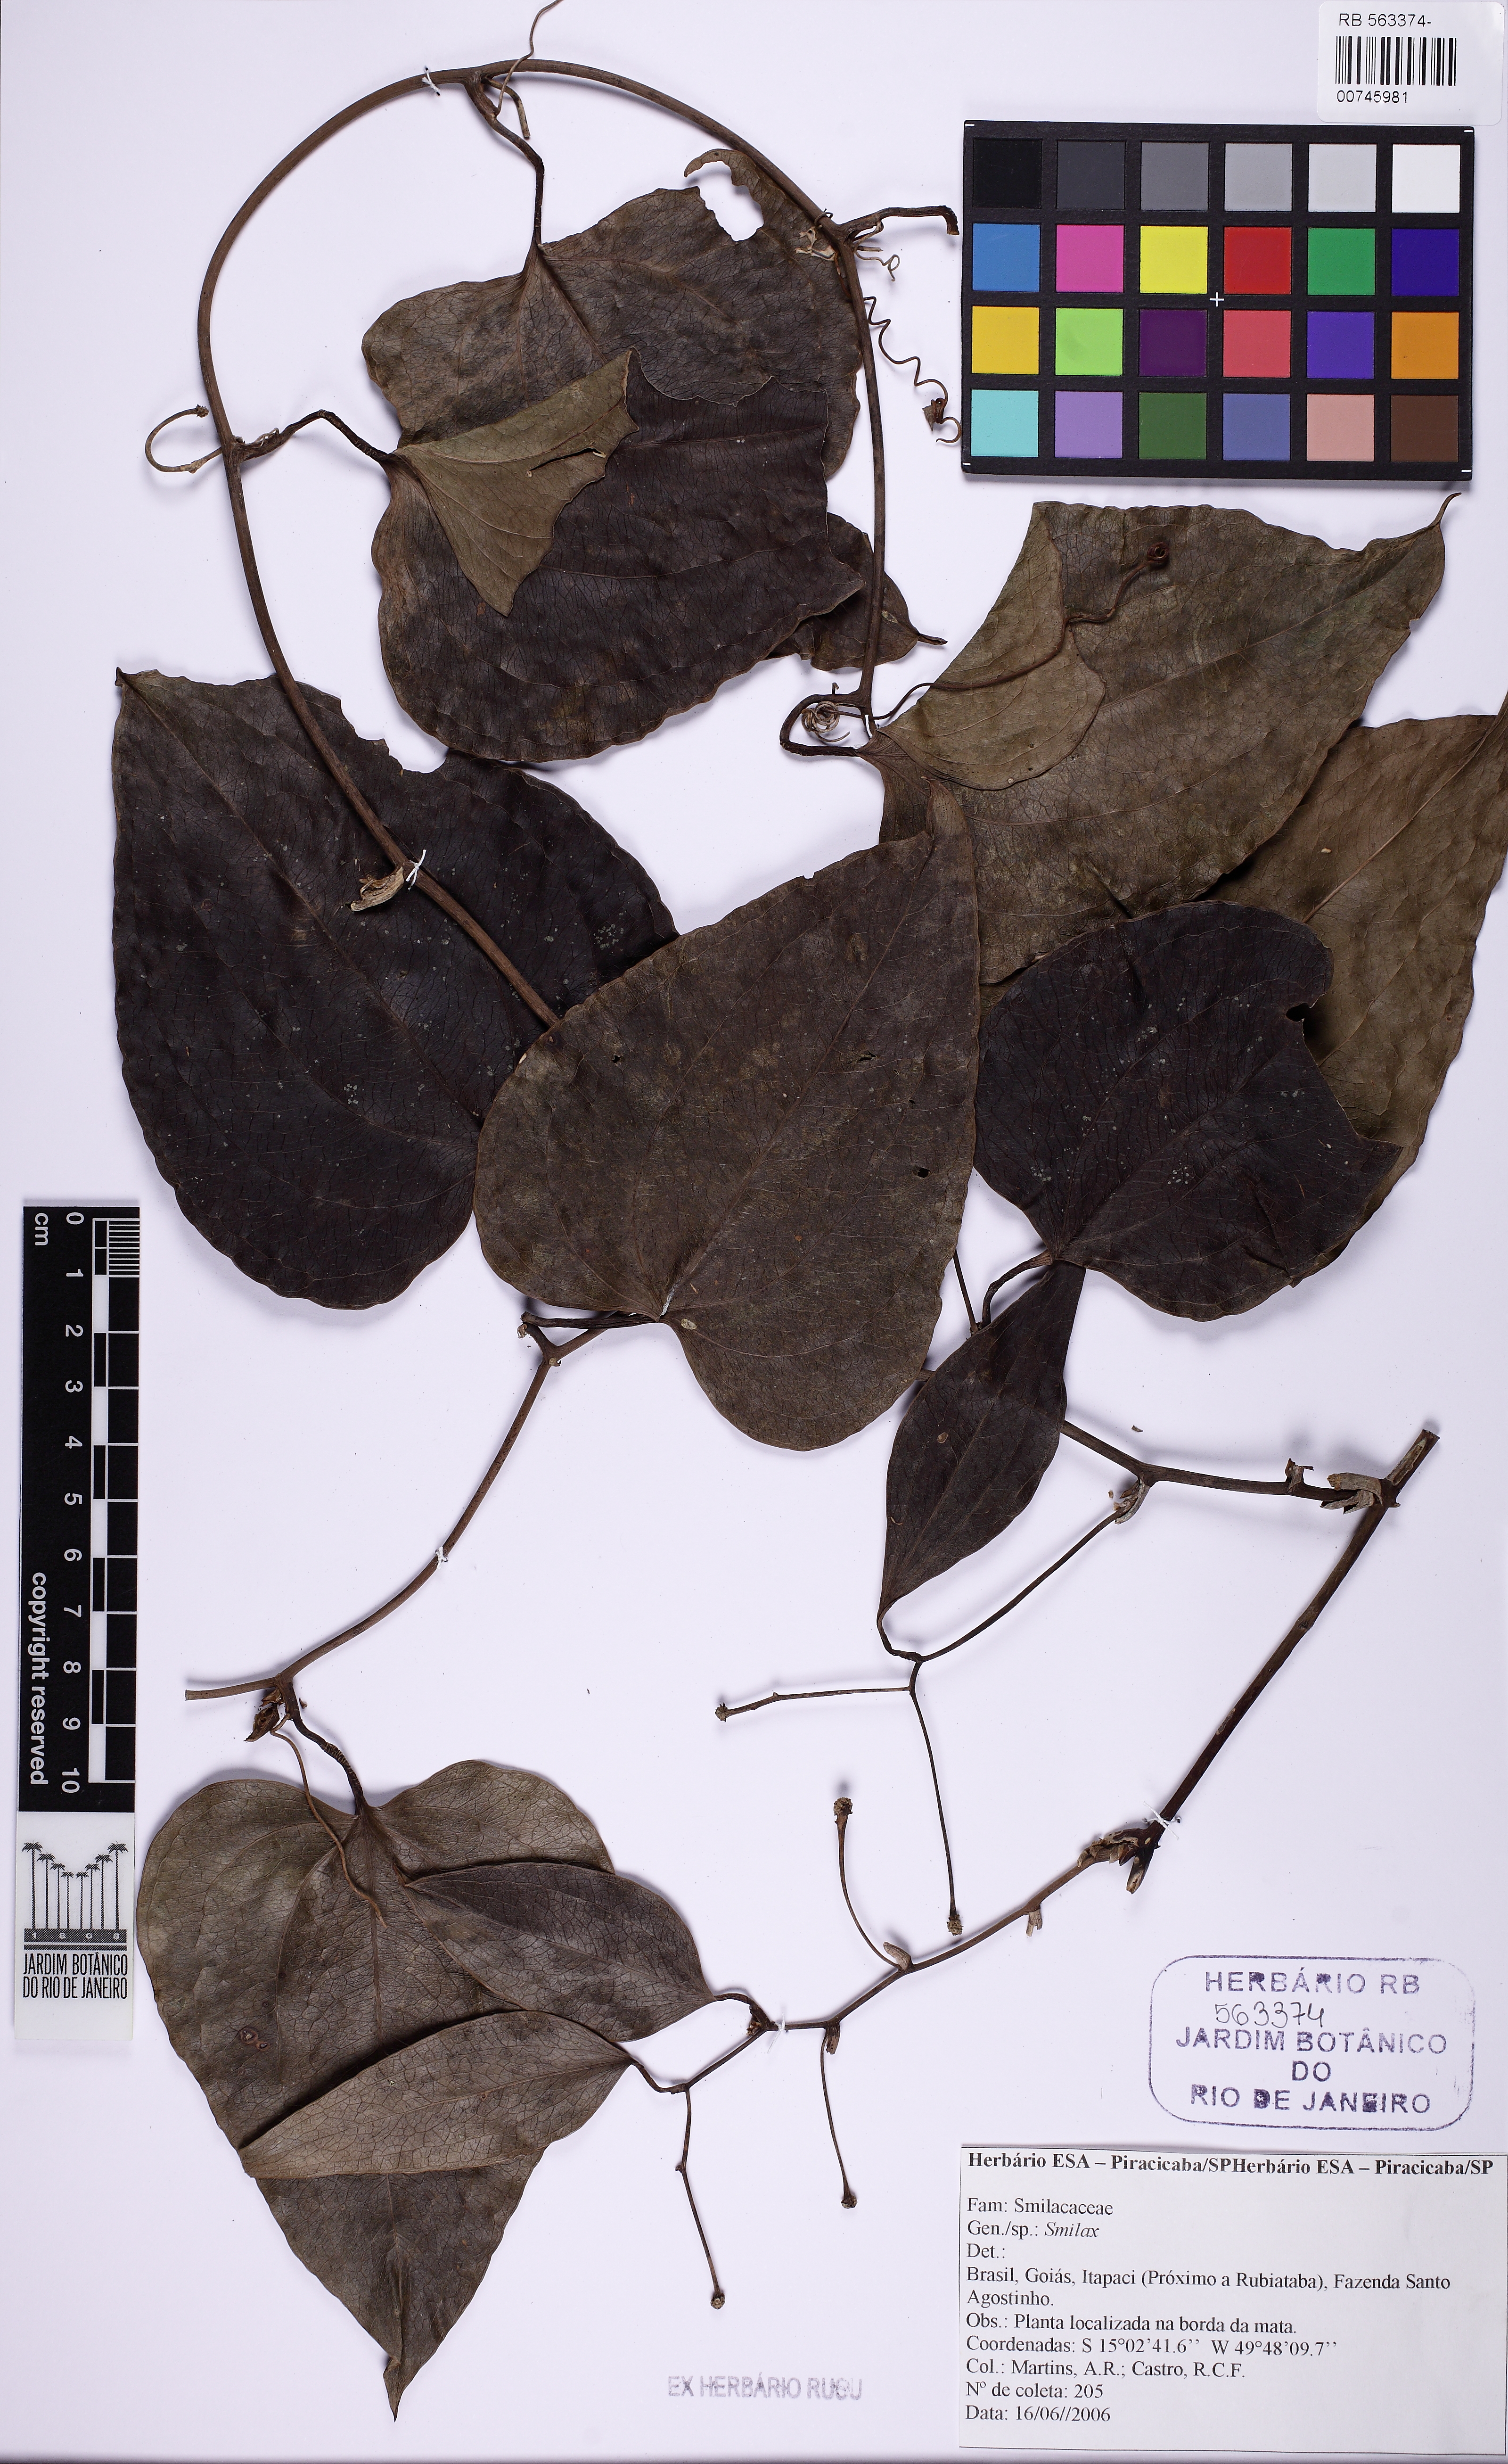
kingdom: Plantae
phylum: Tracheophyta
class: Liliopsida
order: Liliales
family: Smilacaceae
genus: Smilax
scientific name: Smilax
